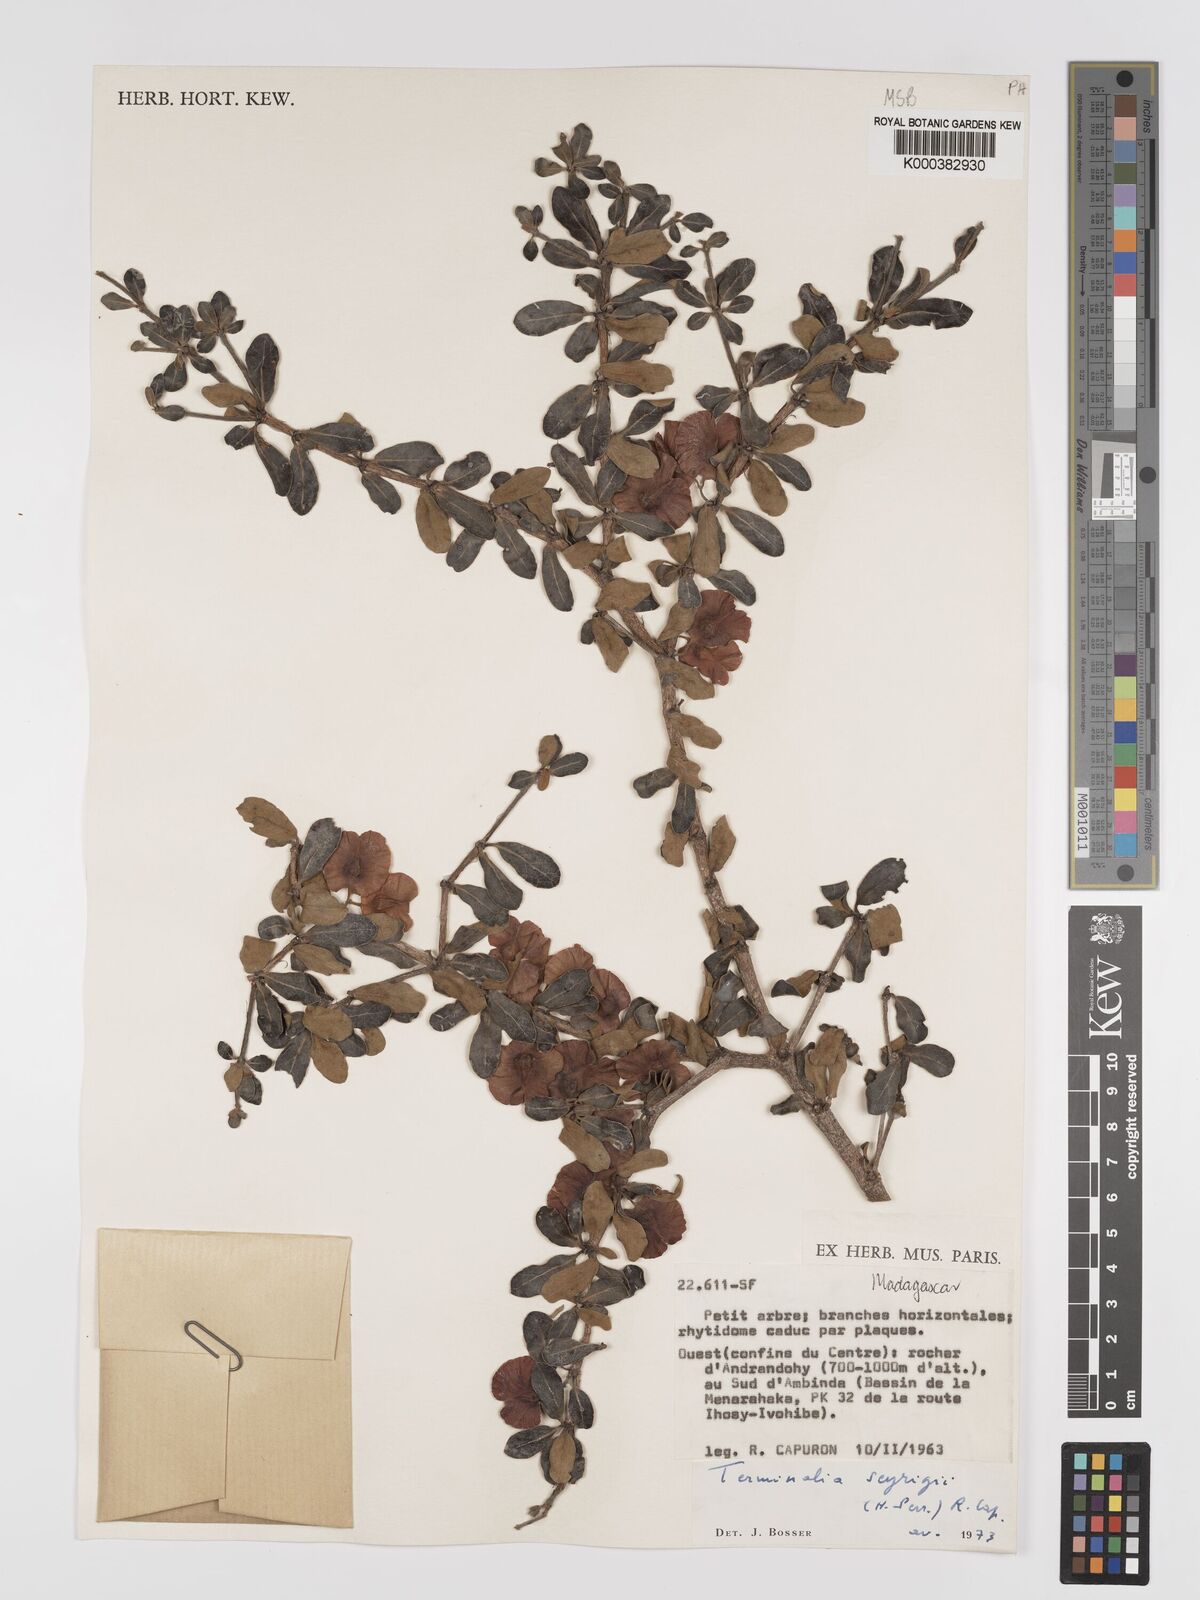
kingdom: Plantae
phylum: Tracheophyta
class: Magnoliopsida
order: Myrtales
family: Combretaceae
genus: Terminalia
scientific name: Terminalia seyrigii
